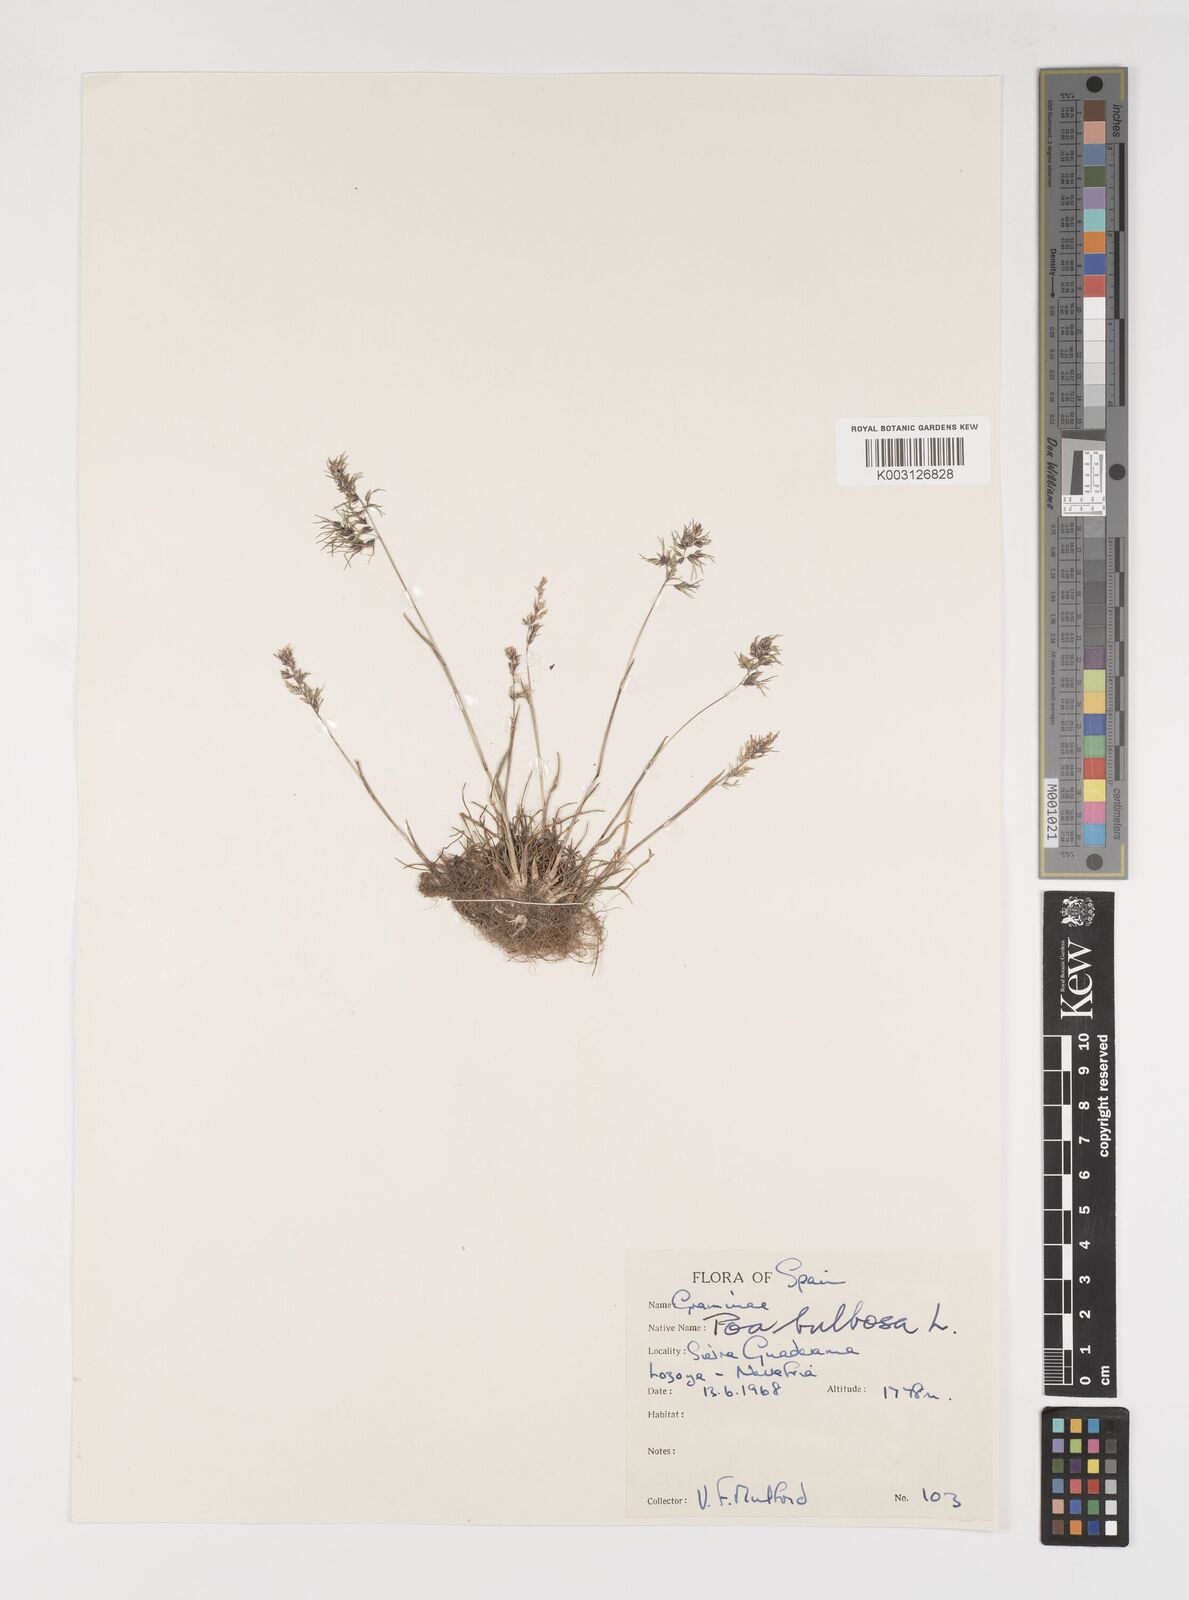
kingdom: Plantae
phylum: Tracheophyta
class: Liliopsida
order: Poales
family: Poaceae
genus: Poa
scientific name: Poa bulbosa
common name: Bulbous bluegrass
